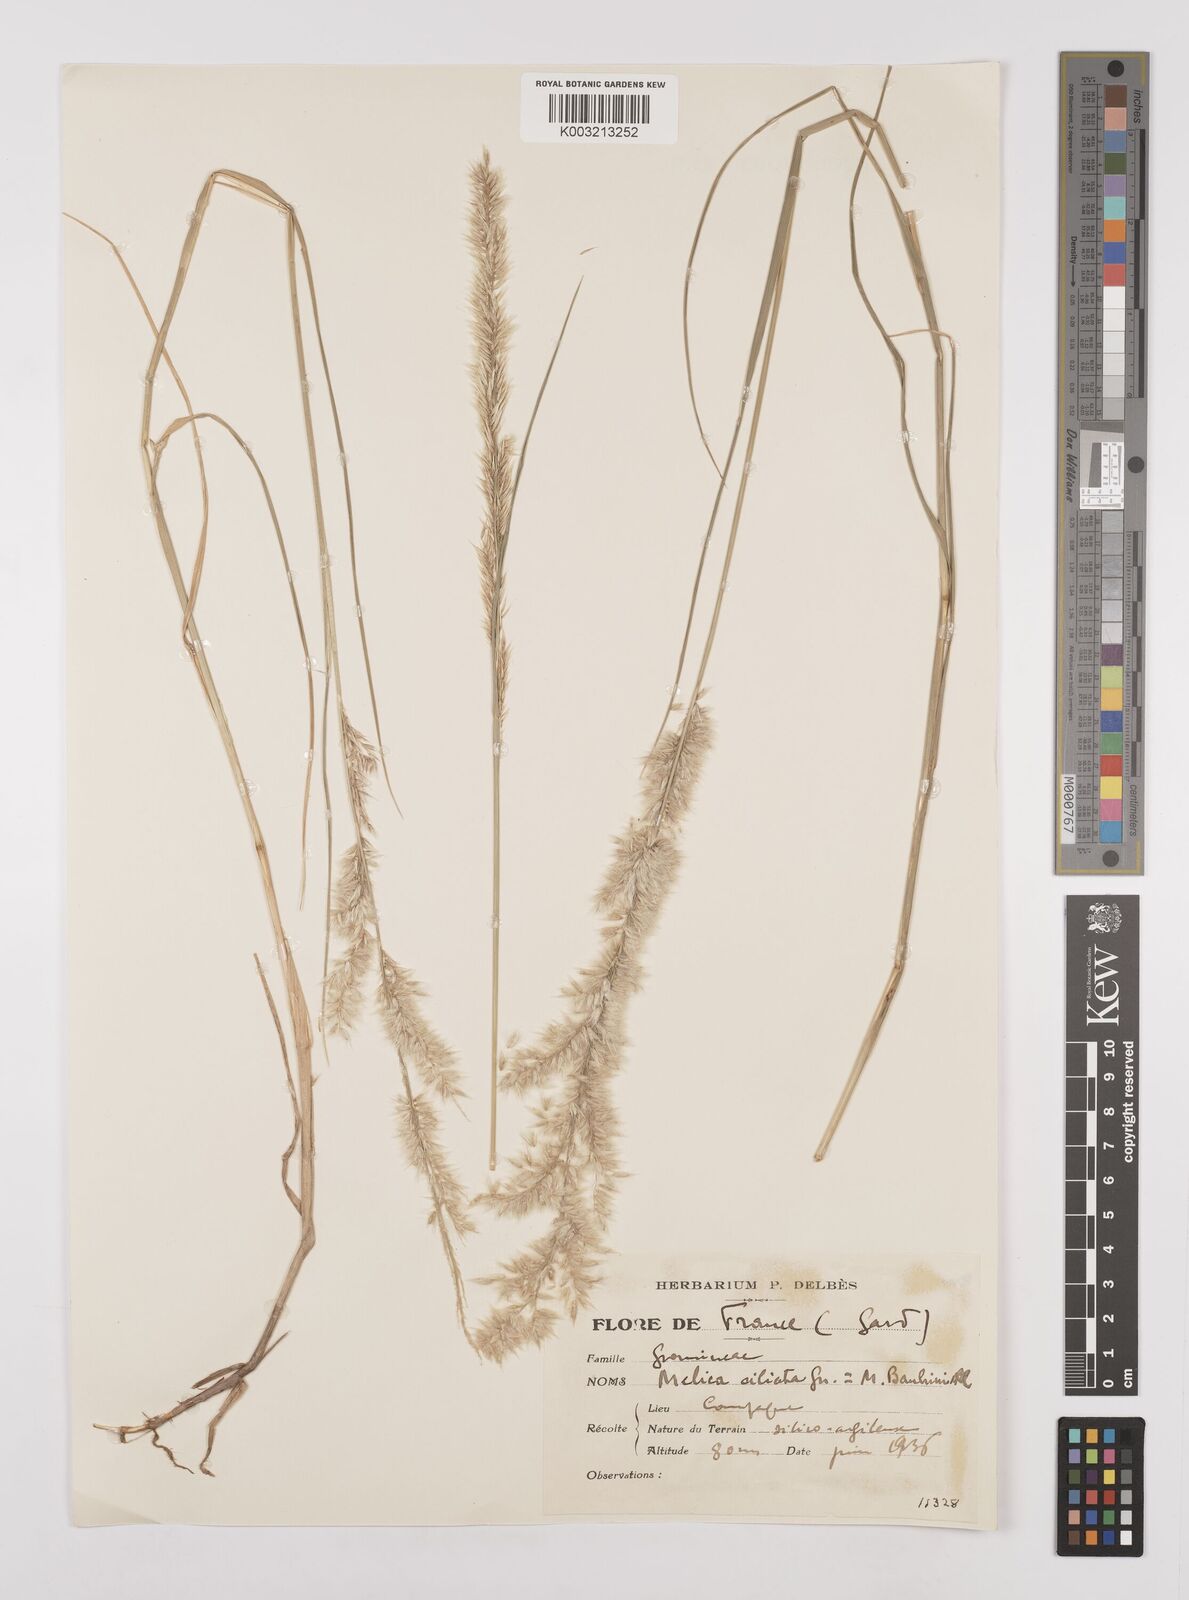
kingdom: Plantae
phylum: Tracheophyta
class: Liliopsida
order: Poales
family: Poaceae
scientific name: Poaceae
